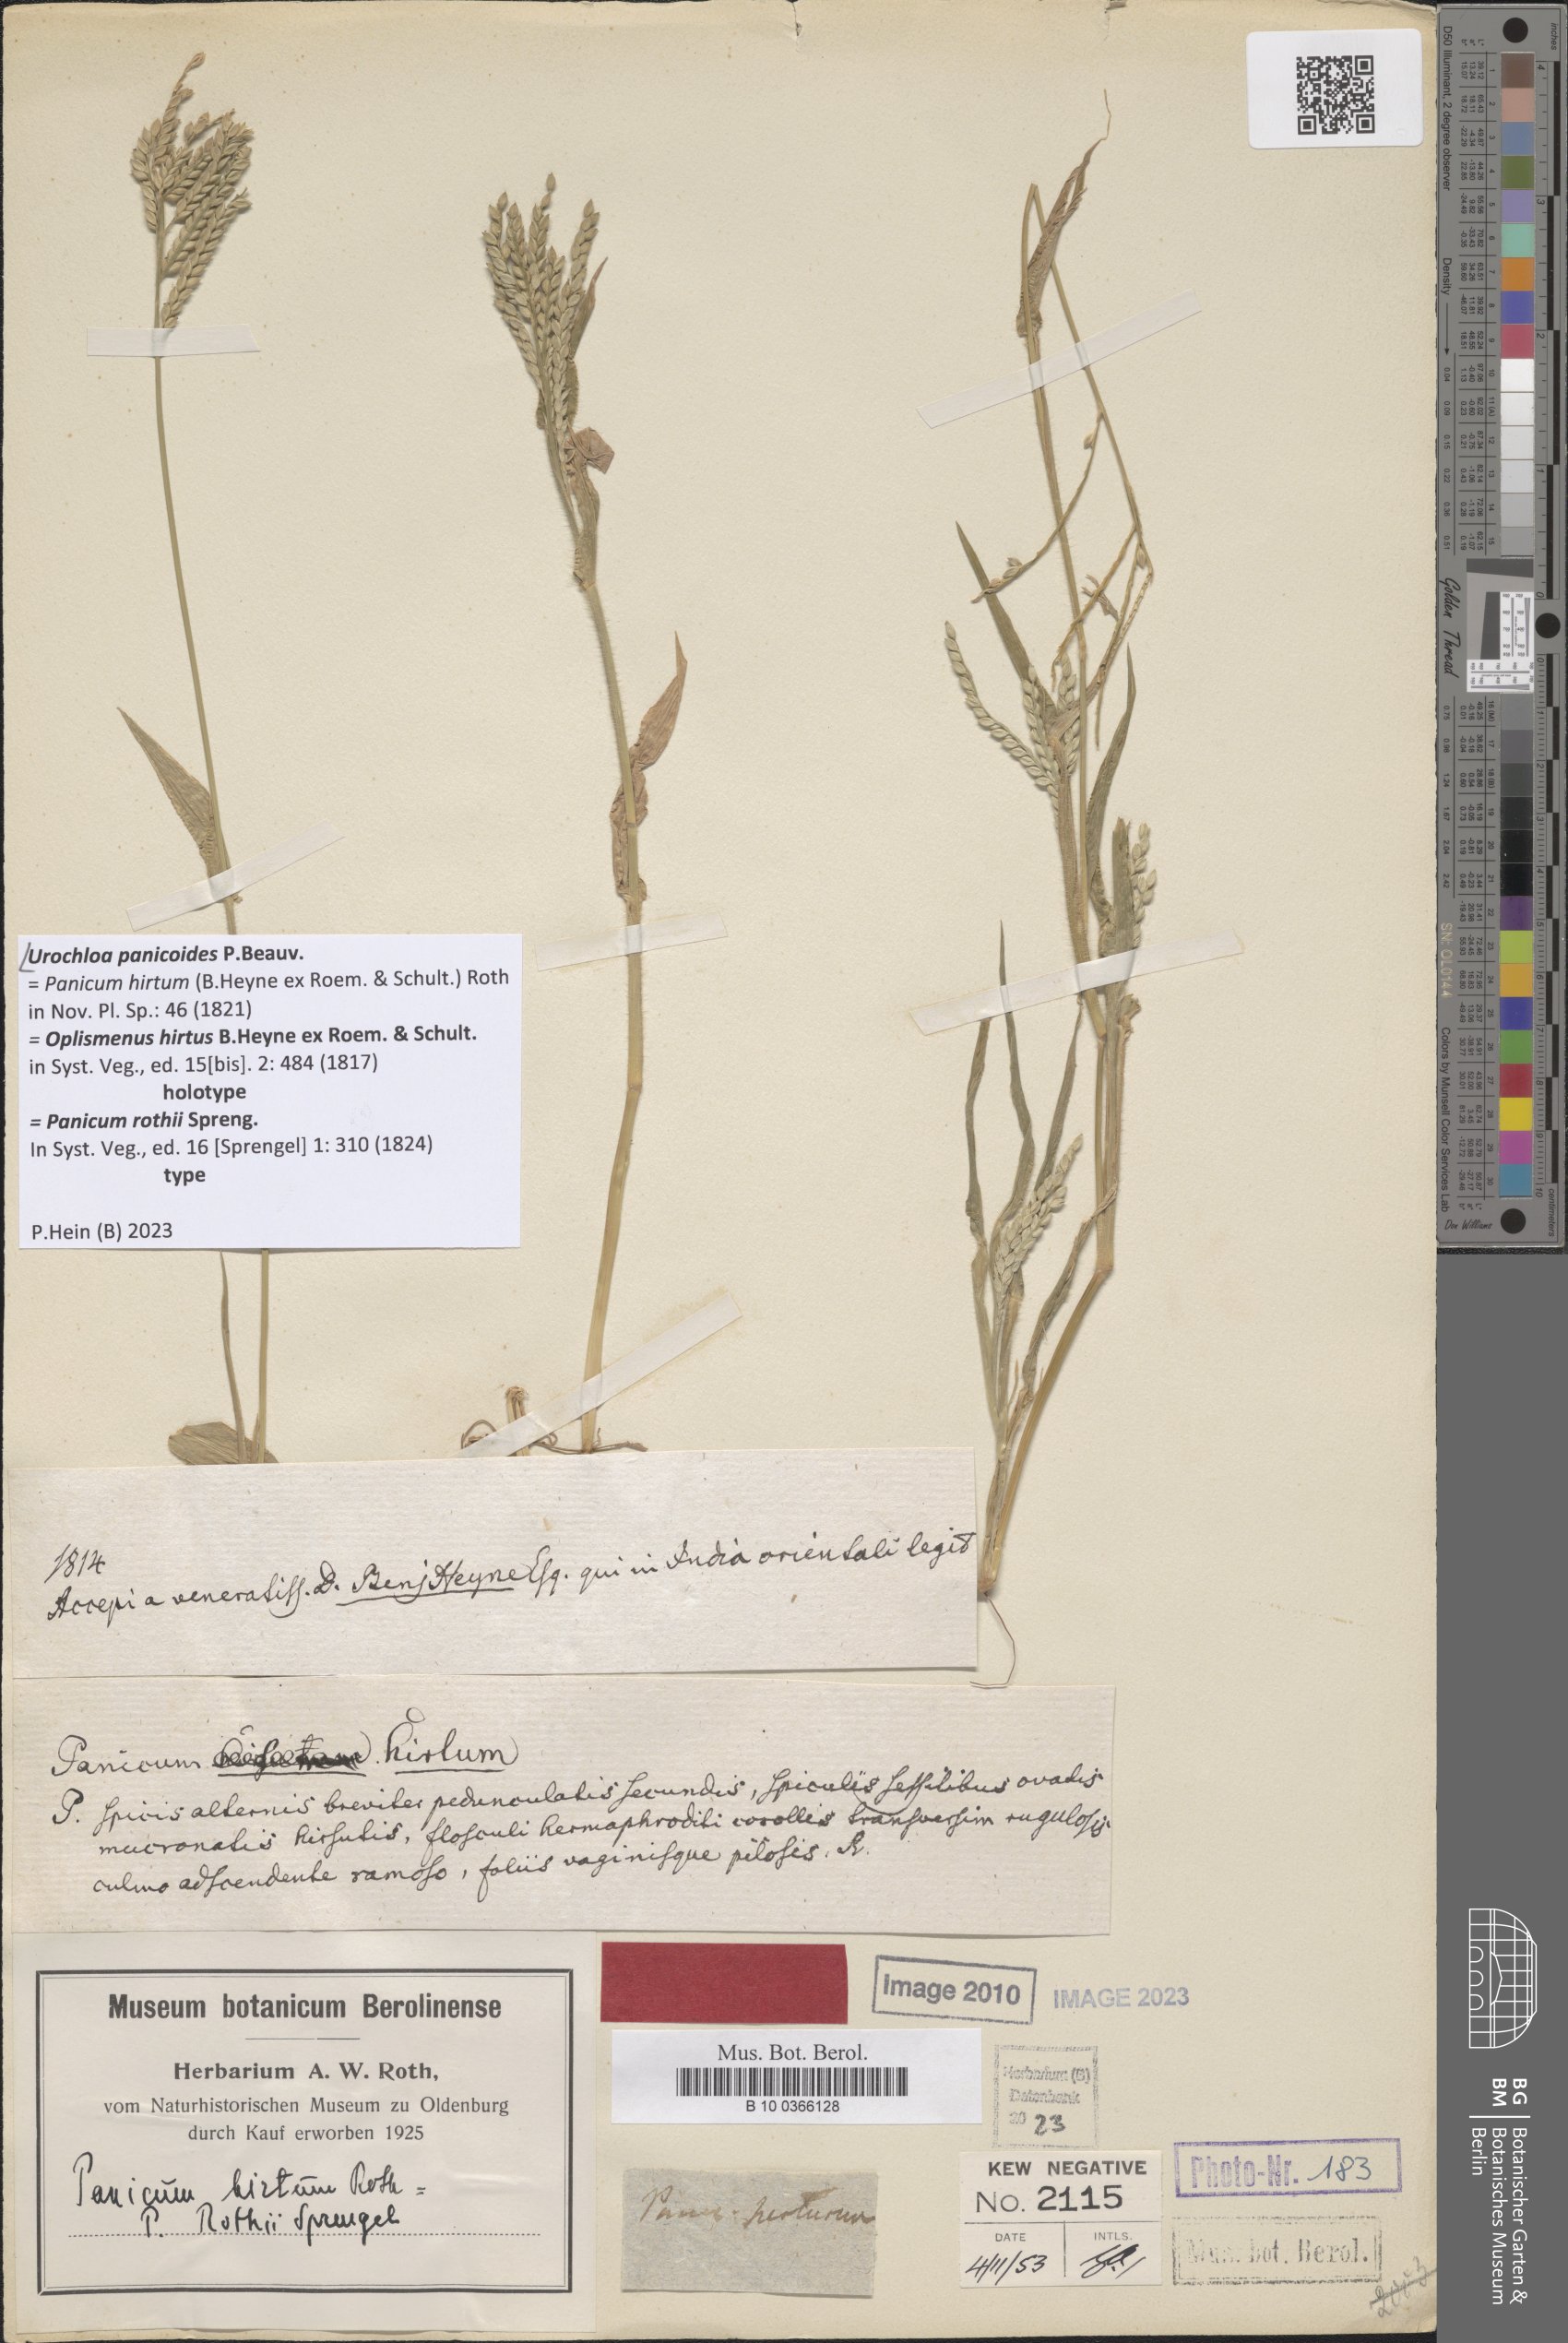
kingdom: Plantae
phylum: Tracheophyta
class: Liliopsida
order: Poales
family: Poaceae
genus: Urochloa
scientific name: Urochloa panicoides
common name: Sharp-flowered signal-grass
